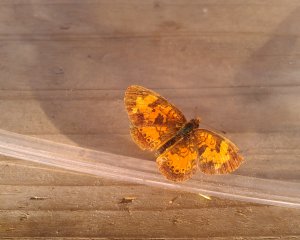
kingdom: Animalia
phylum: Arthropoda
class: Insecta
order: Lepidoptera
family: Nymphalidae
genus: Phyciodes
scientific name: Phyciodes tharos
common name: Northern Crescent
